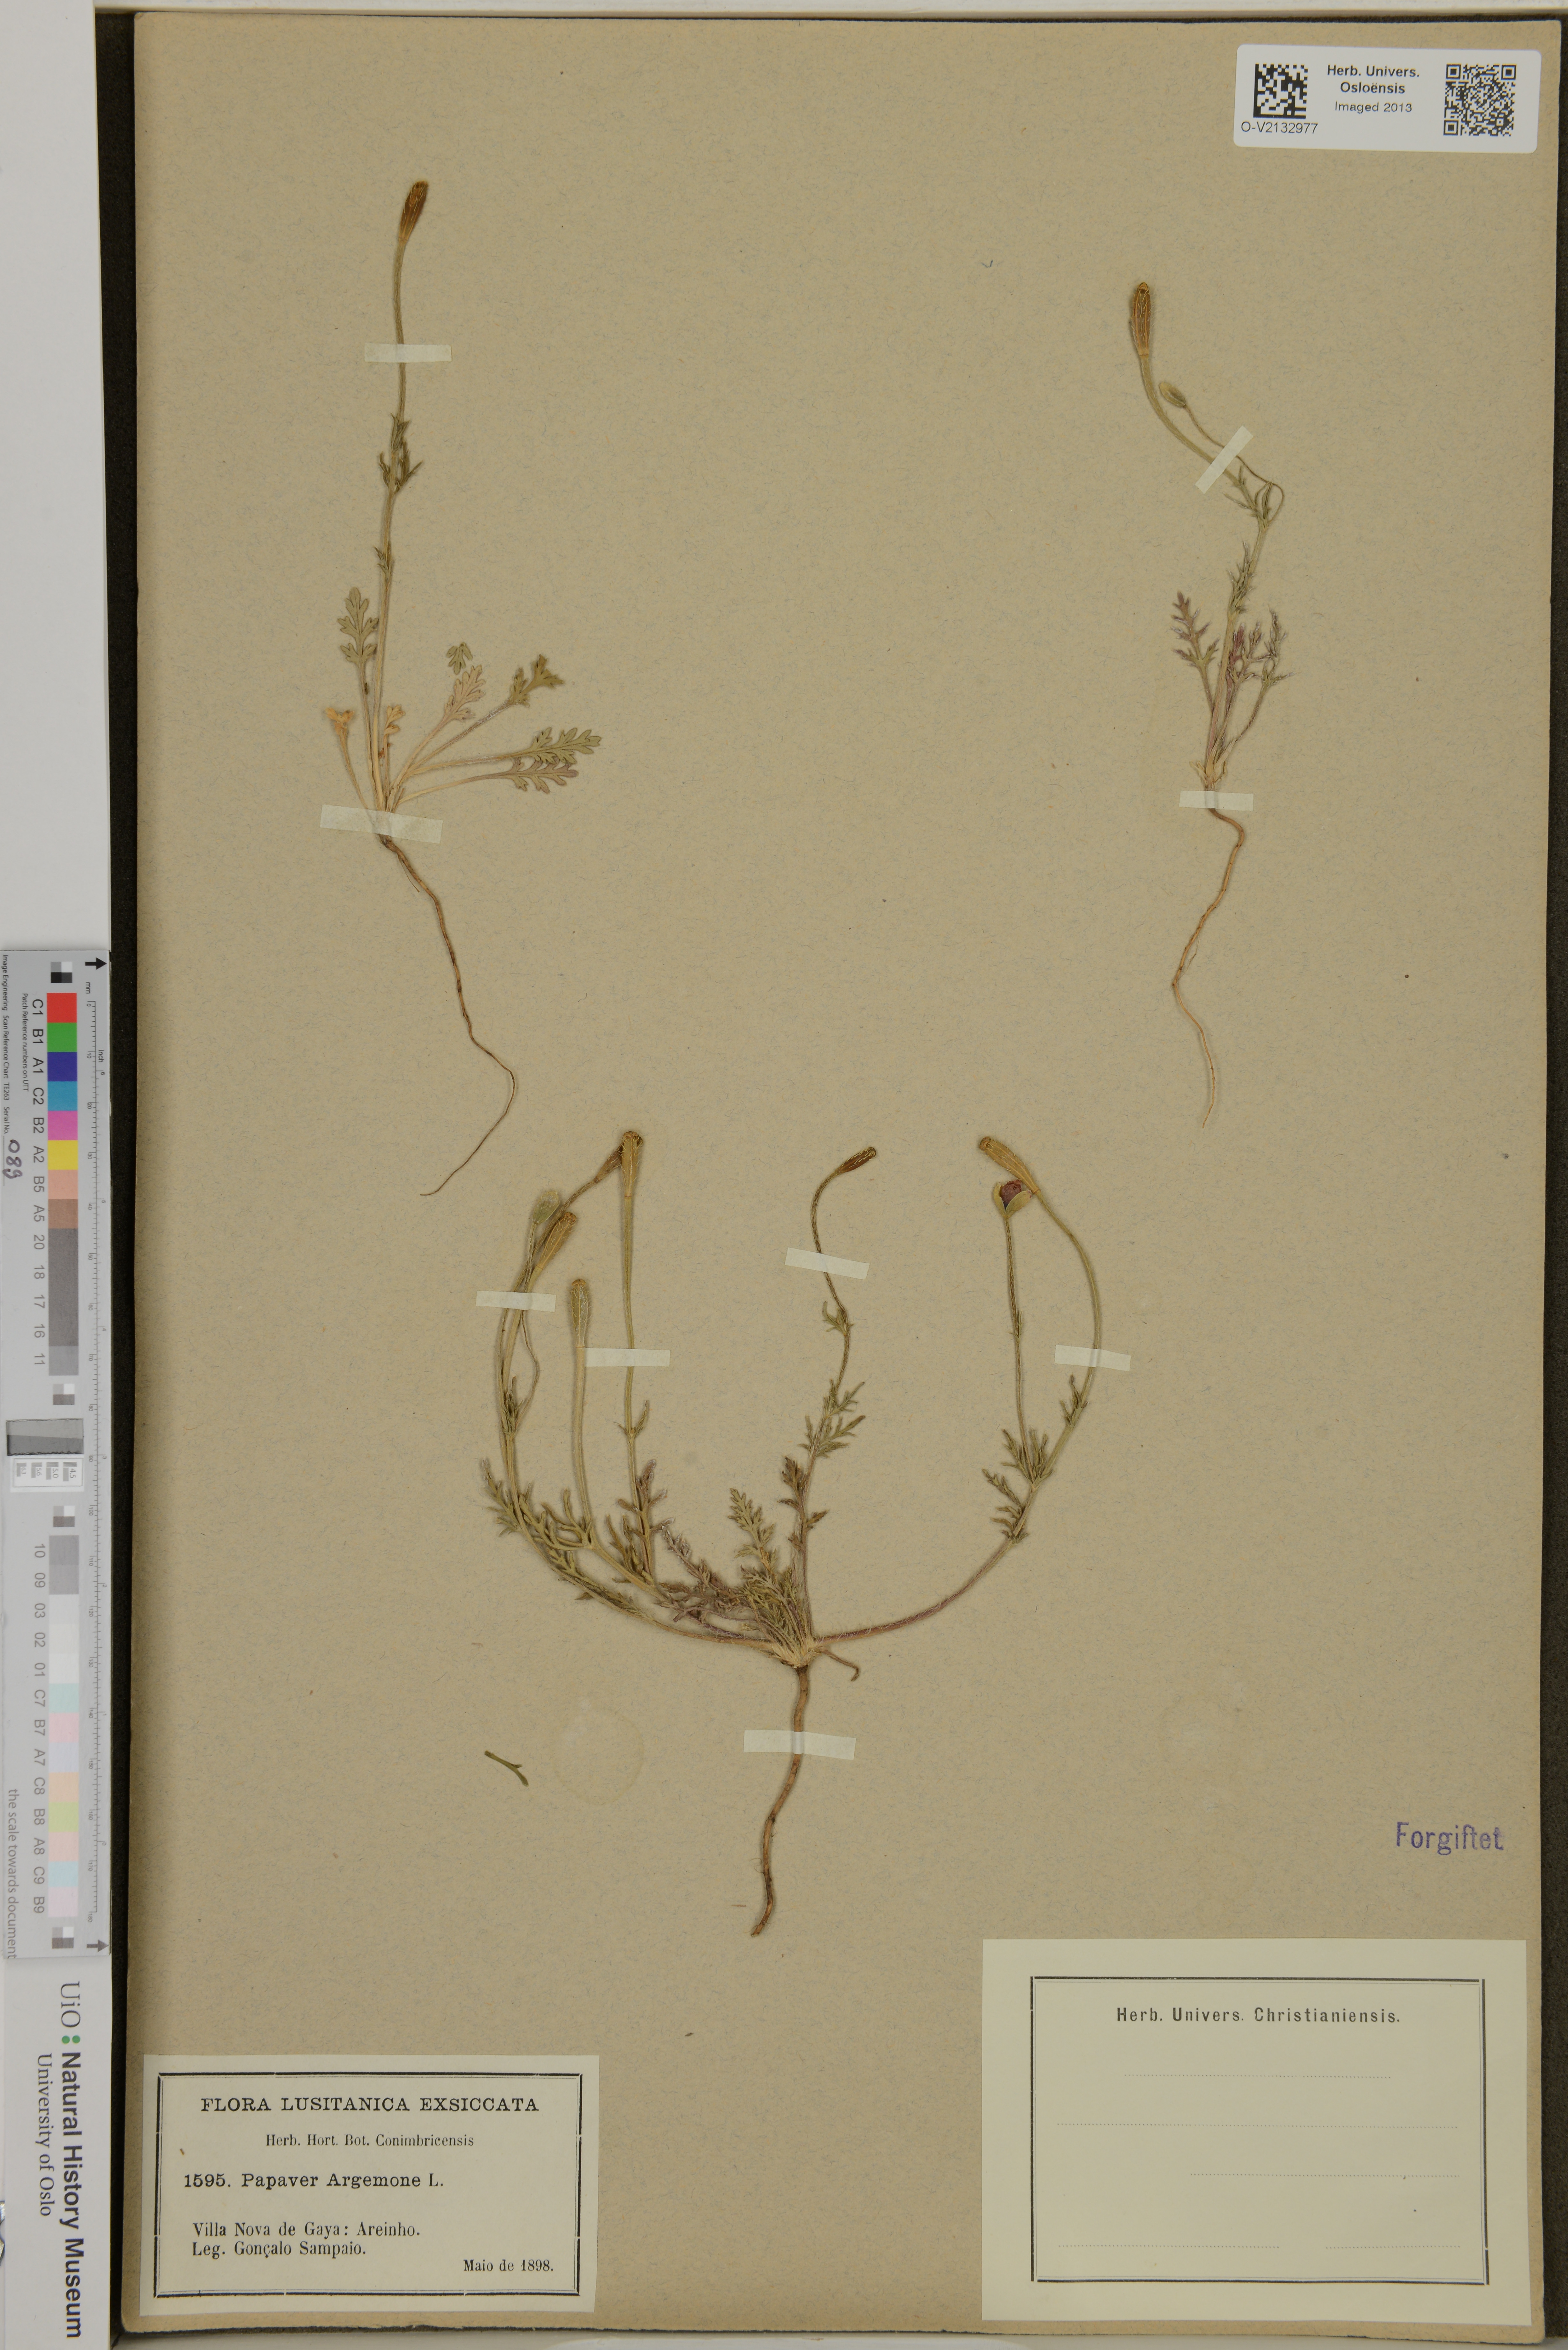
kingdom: Plantae
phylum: Tracheophyta
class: Magnoliopsida
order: Ranunculales
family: Papaveraceae
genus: Roemeria
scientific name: Roemeria argemone
